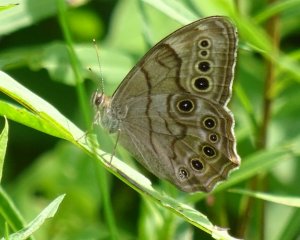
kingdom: Animalia
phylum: Arthropoda
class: Insecta
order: Lepidoptera
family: Nymphalidae
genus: Lethe
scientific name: Lethe anthedon
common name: Northern Pearly-Eye
